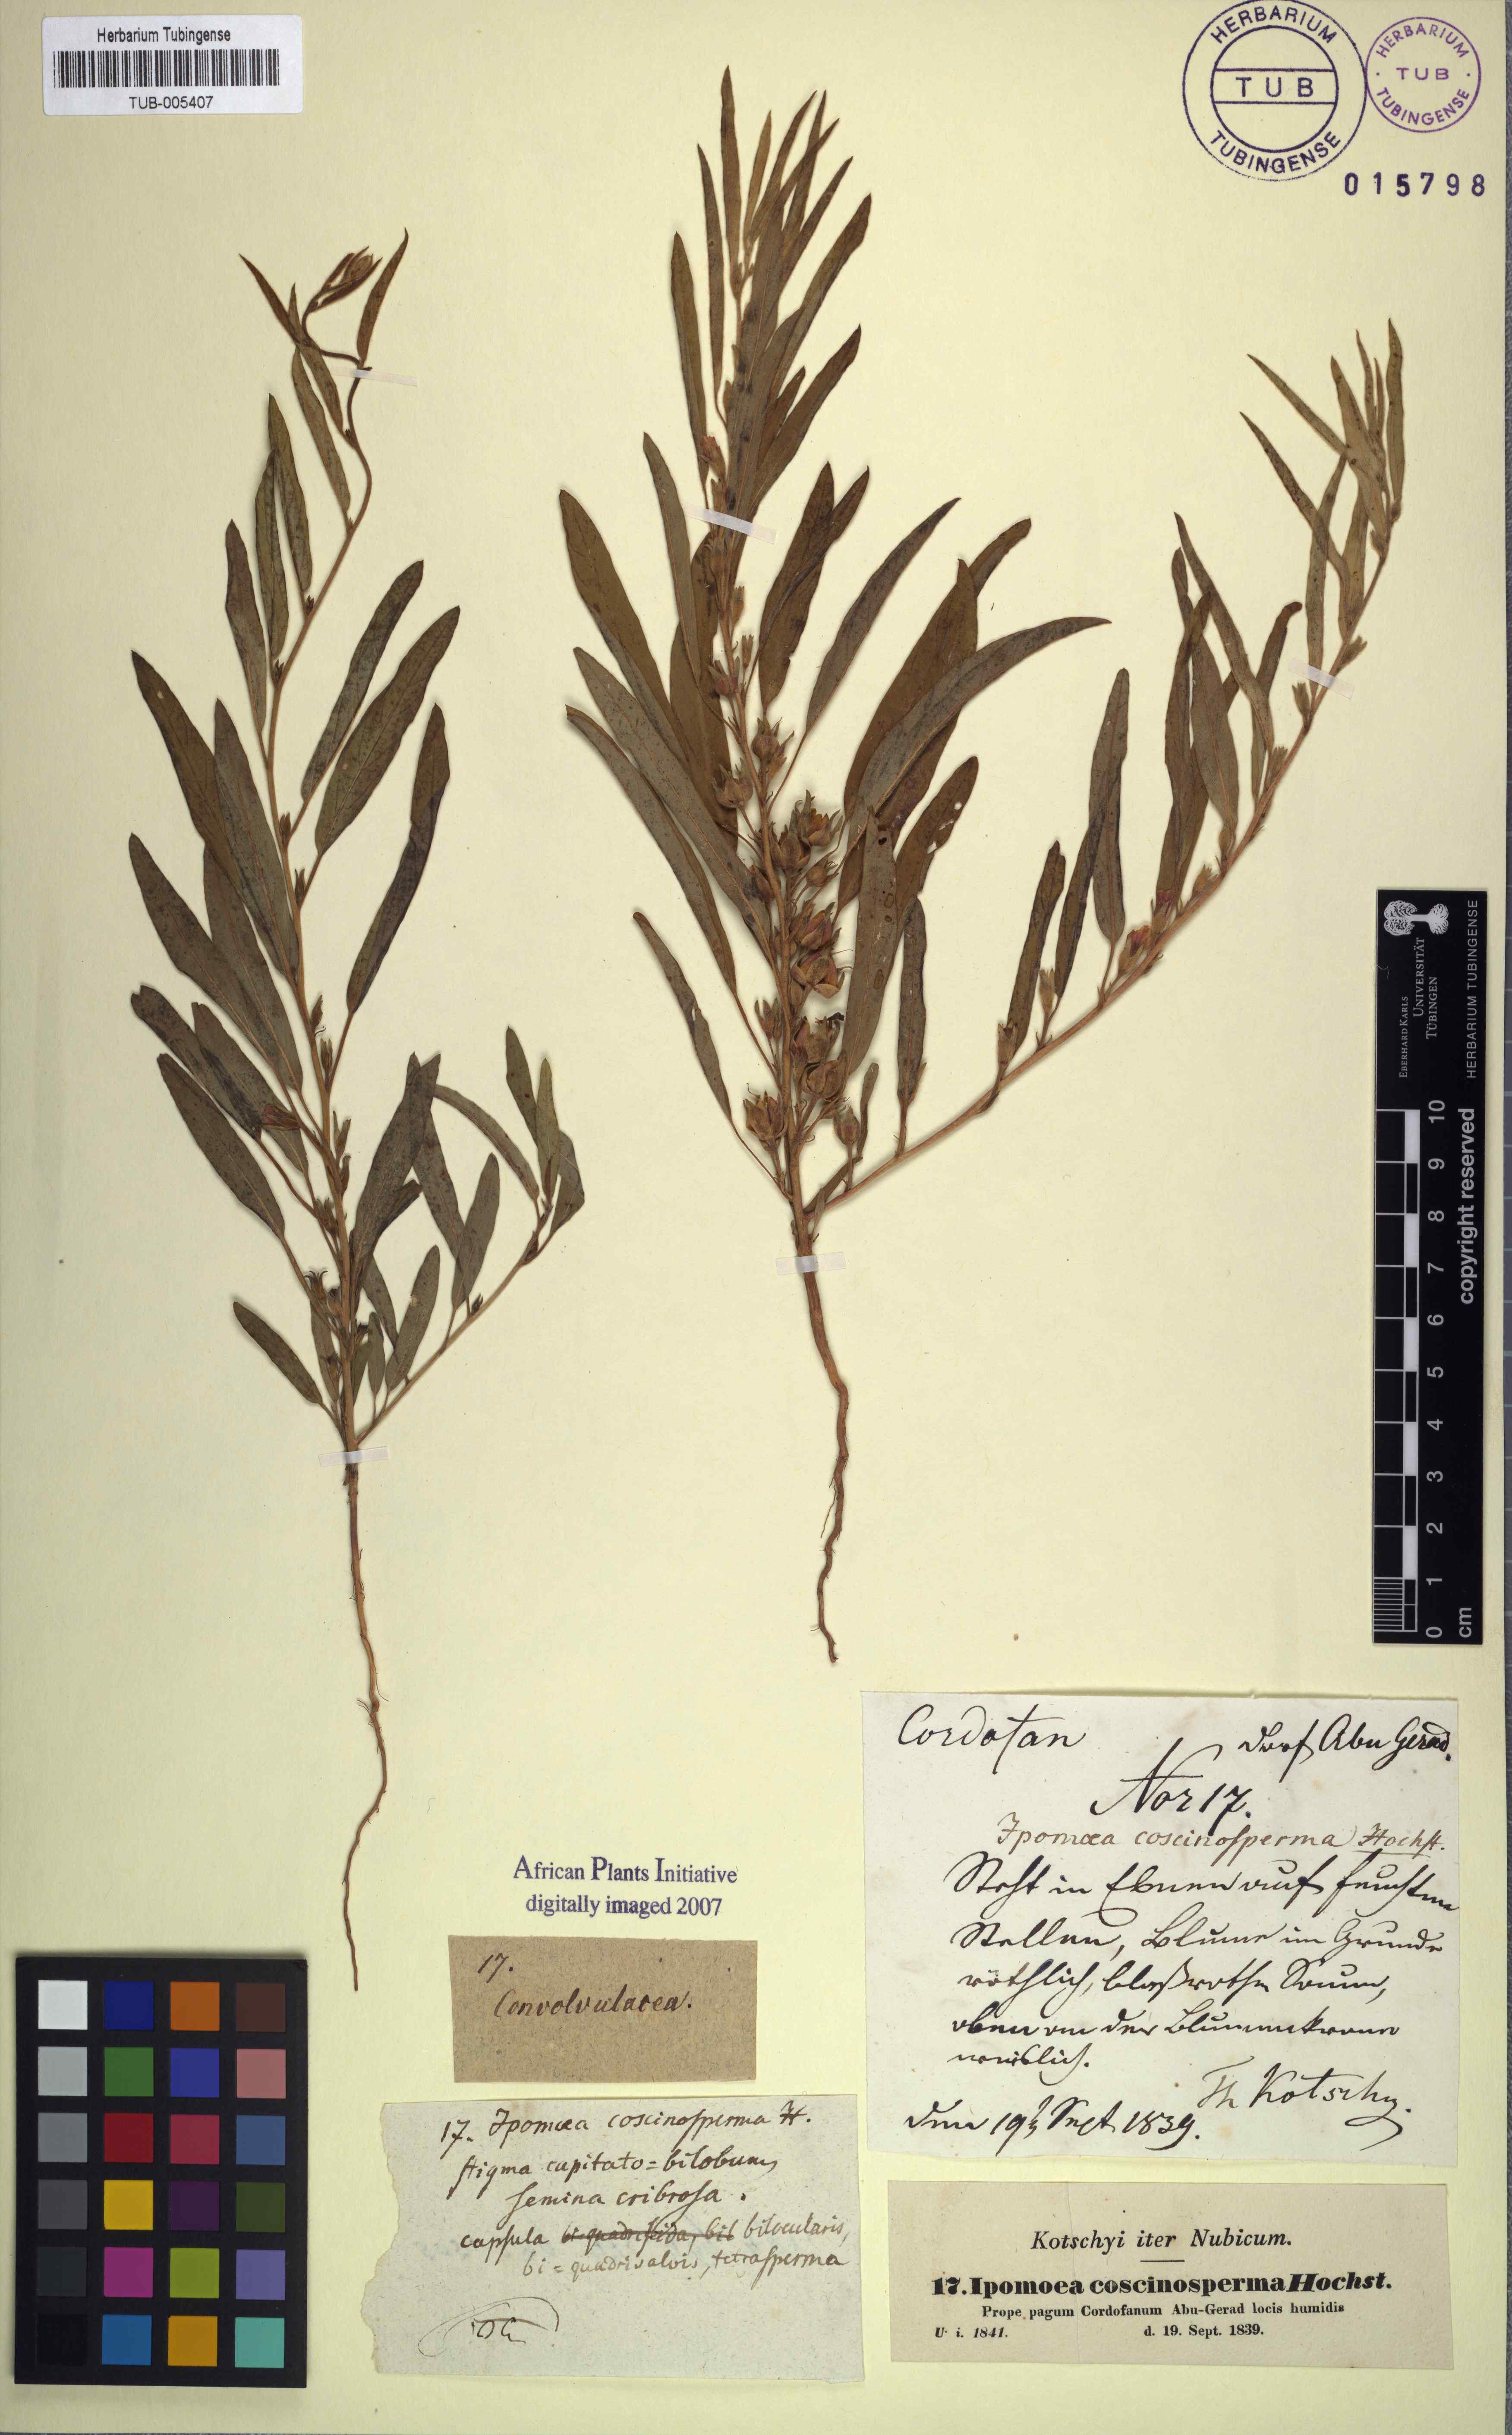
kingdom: Plantae
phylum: Tracheophyta
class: Magnoliopsida
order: Solanales
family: Convolvulaceae
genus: Ipomoea
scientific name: Ipomoea coscinosperma
